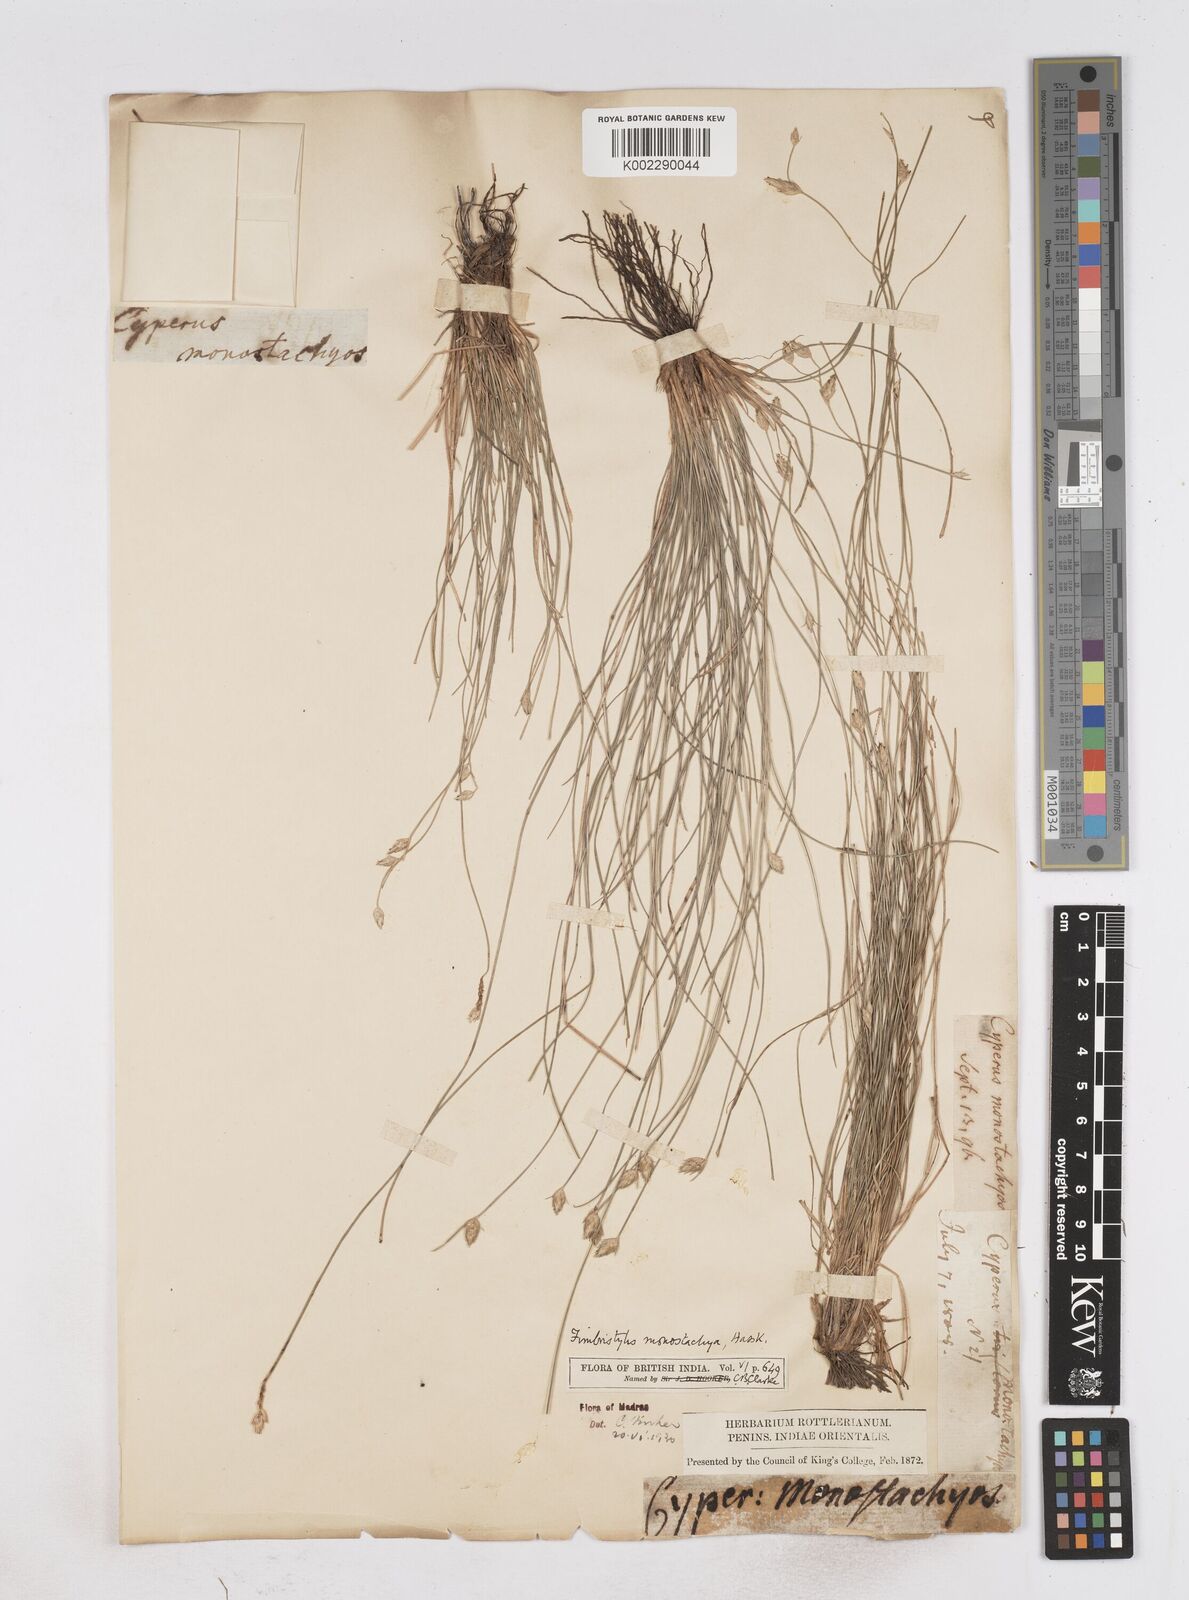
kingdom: Plantae
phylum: Tracheophyta
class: Liliopsida
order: Poales
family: Cyperaceae
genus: Abildgaardia
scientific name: Abildgaardia ovata
